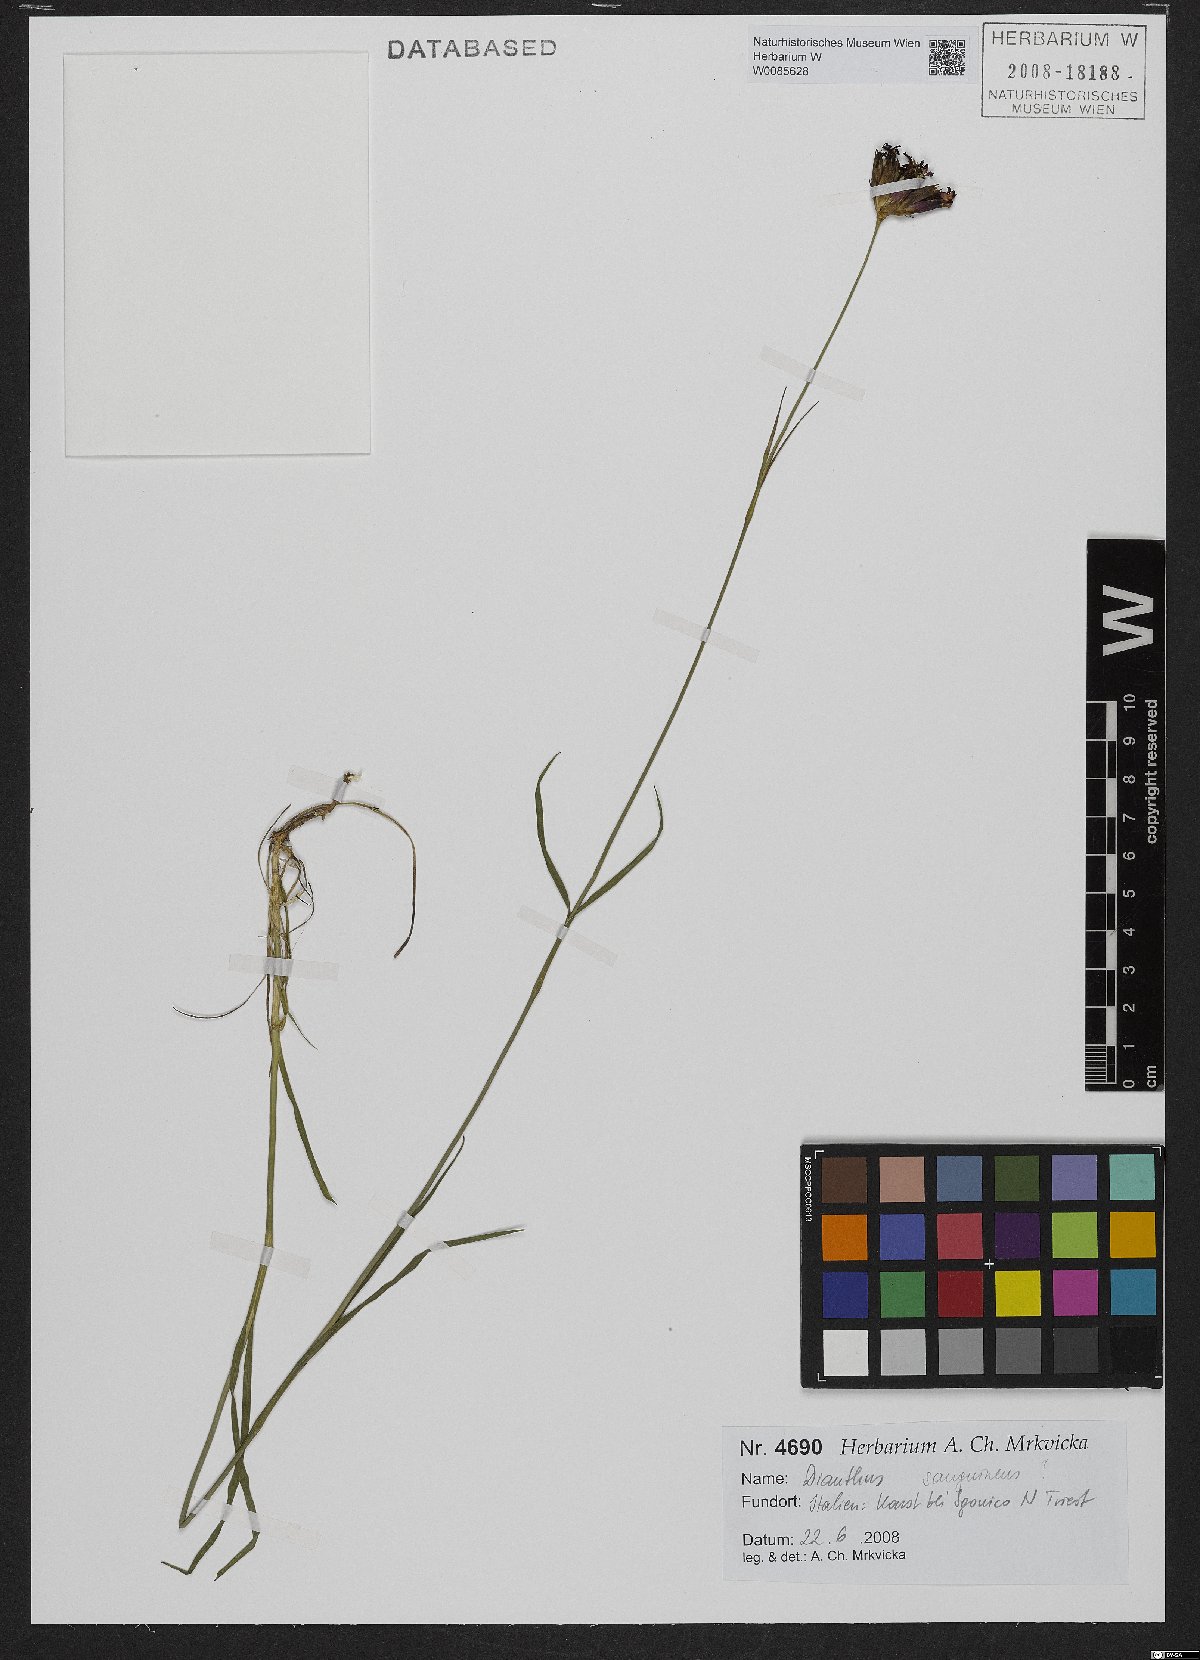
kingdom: Plantae
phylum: Tracheophyta
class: Magnoliopsida
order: Caryophyllales
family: Caryophyllaceae
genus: Dianthus
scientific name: Dianthus carthusianorum
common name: Carthusian pink
